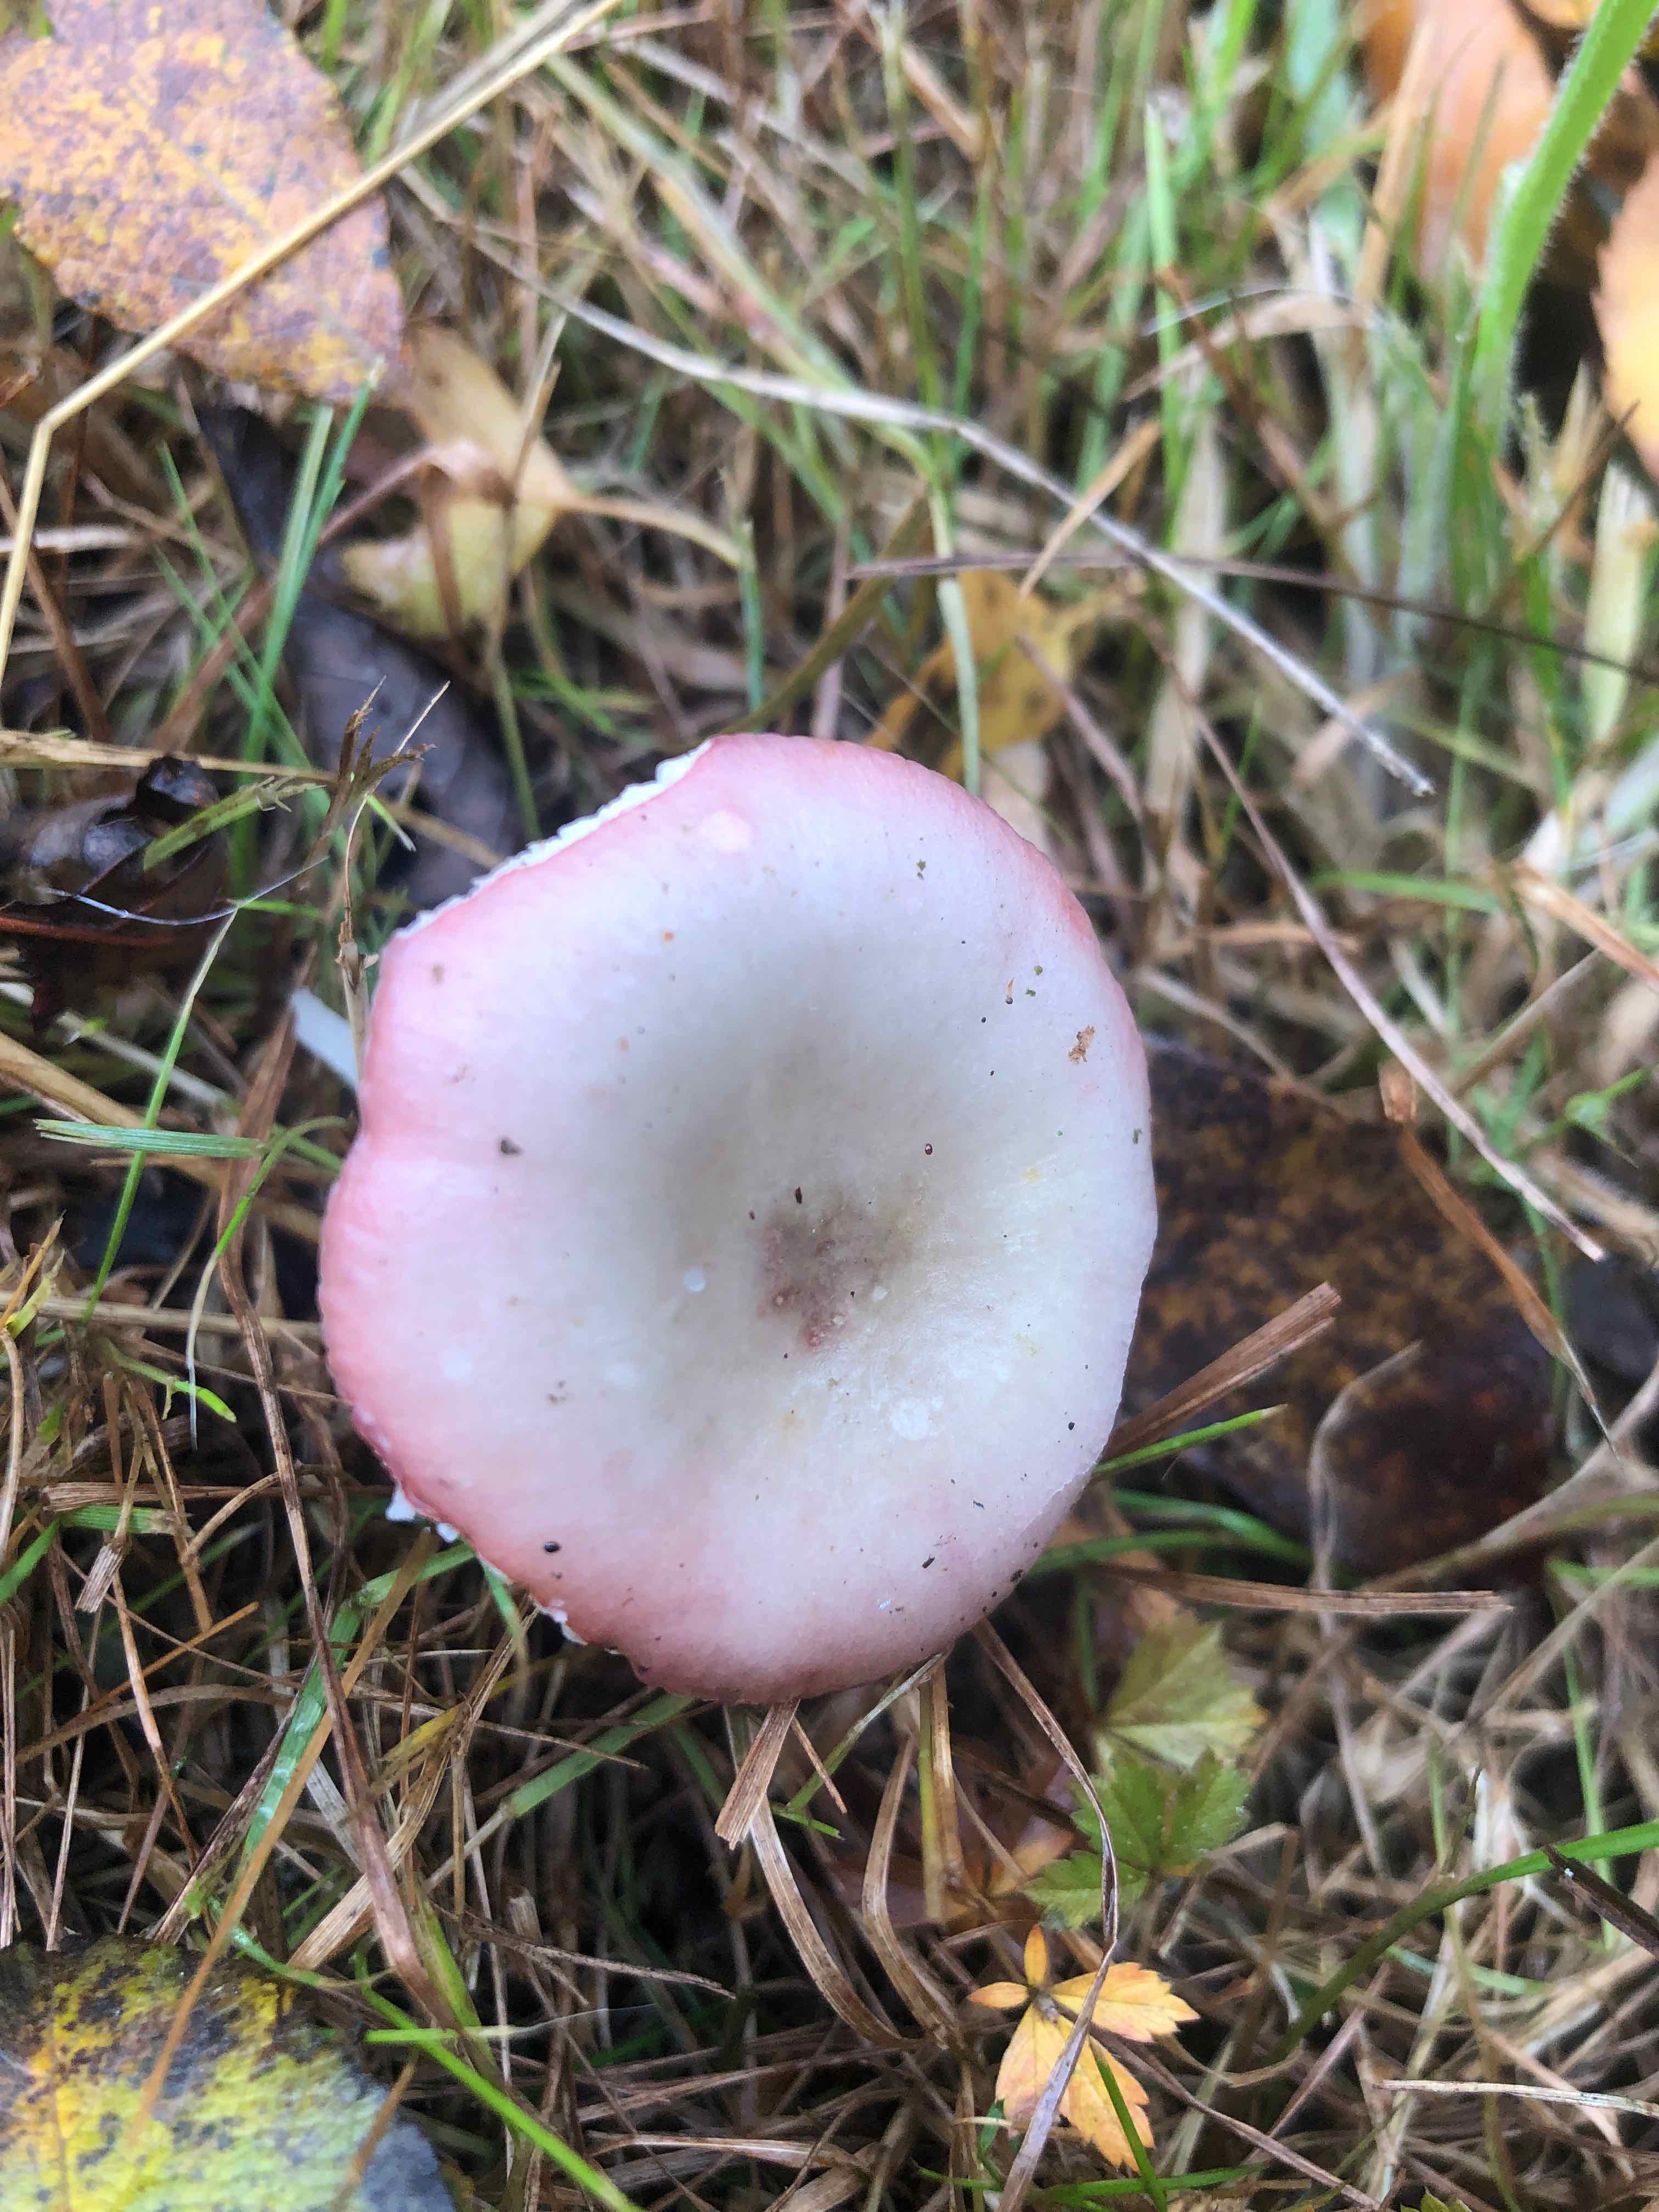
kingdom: Fungi
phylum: Basidiomycota
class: Agaricomycetes
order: Russulales
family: Russulaceae
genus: Russula
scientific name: Russula gracillima
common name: slank skørhat
